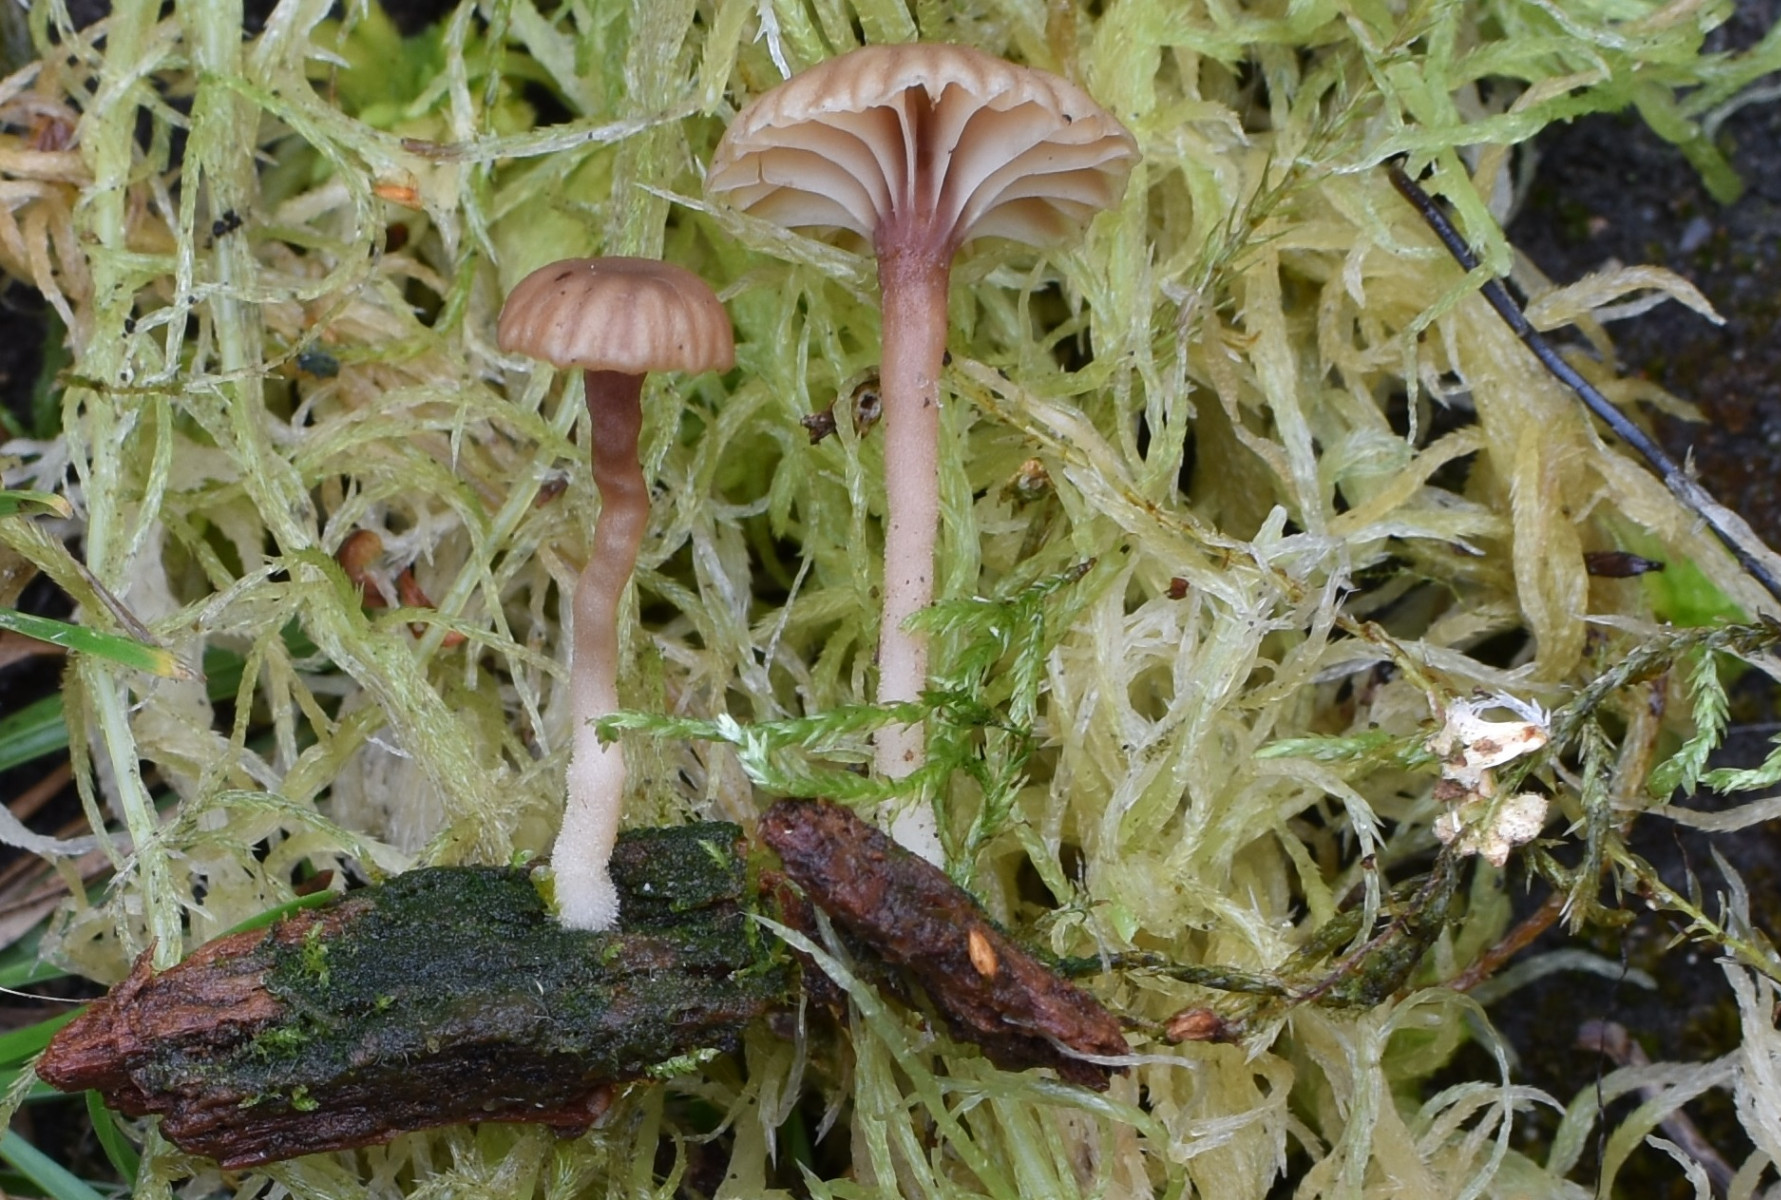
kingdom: Fungi
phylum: Basidiomycota
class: Agaricomycetes
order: Agaricales
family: Hygrophoraceae
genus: Lichenomphalia
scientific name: Lichenomphalia umbellifera
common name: tørve-lavhat
